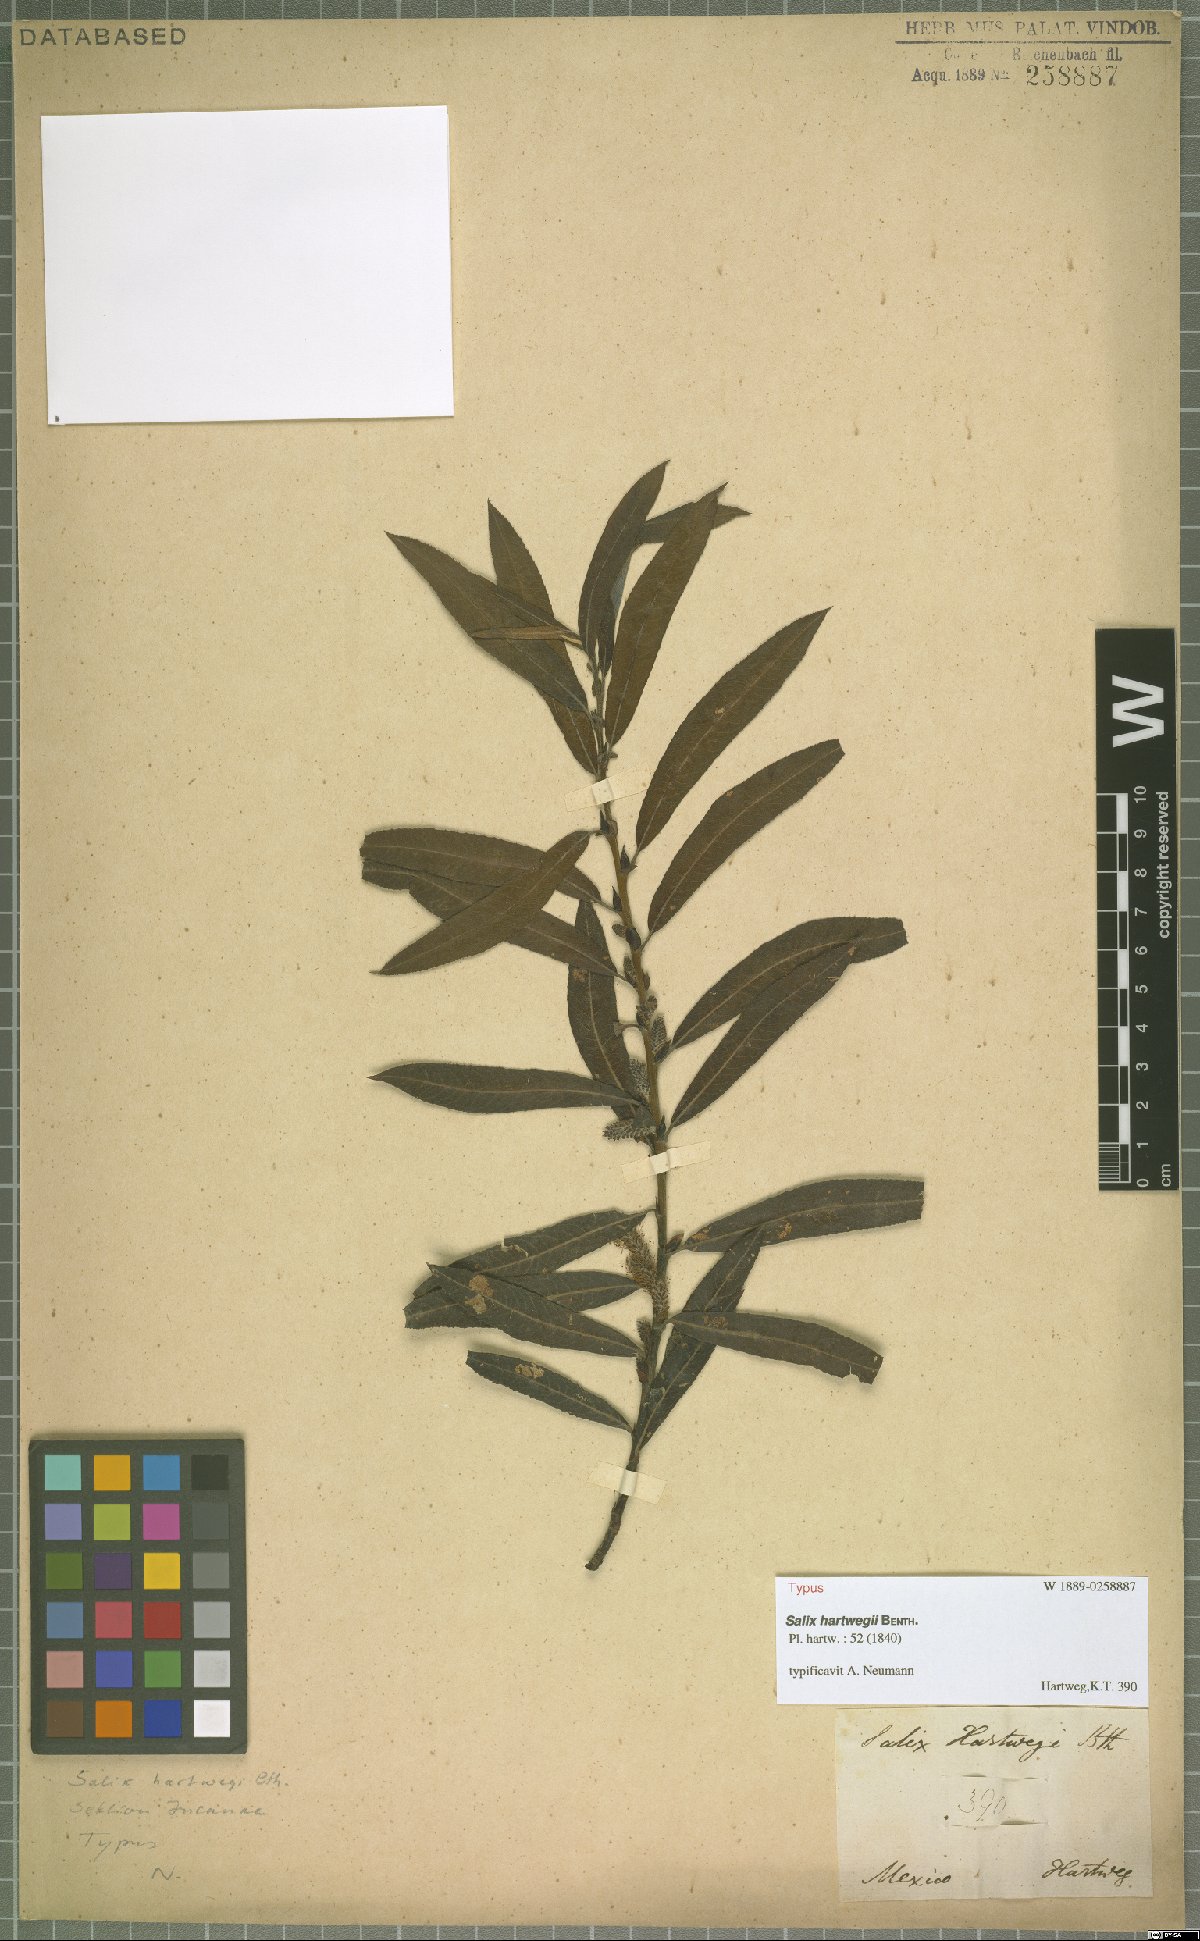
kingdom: Plantae
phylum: Tracheophyta
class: Magnoliopsida
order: Malpighiales
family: Salicaceae
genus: Salix
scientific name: Salix hartwegii
